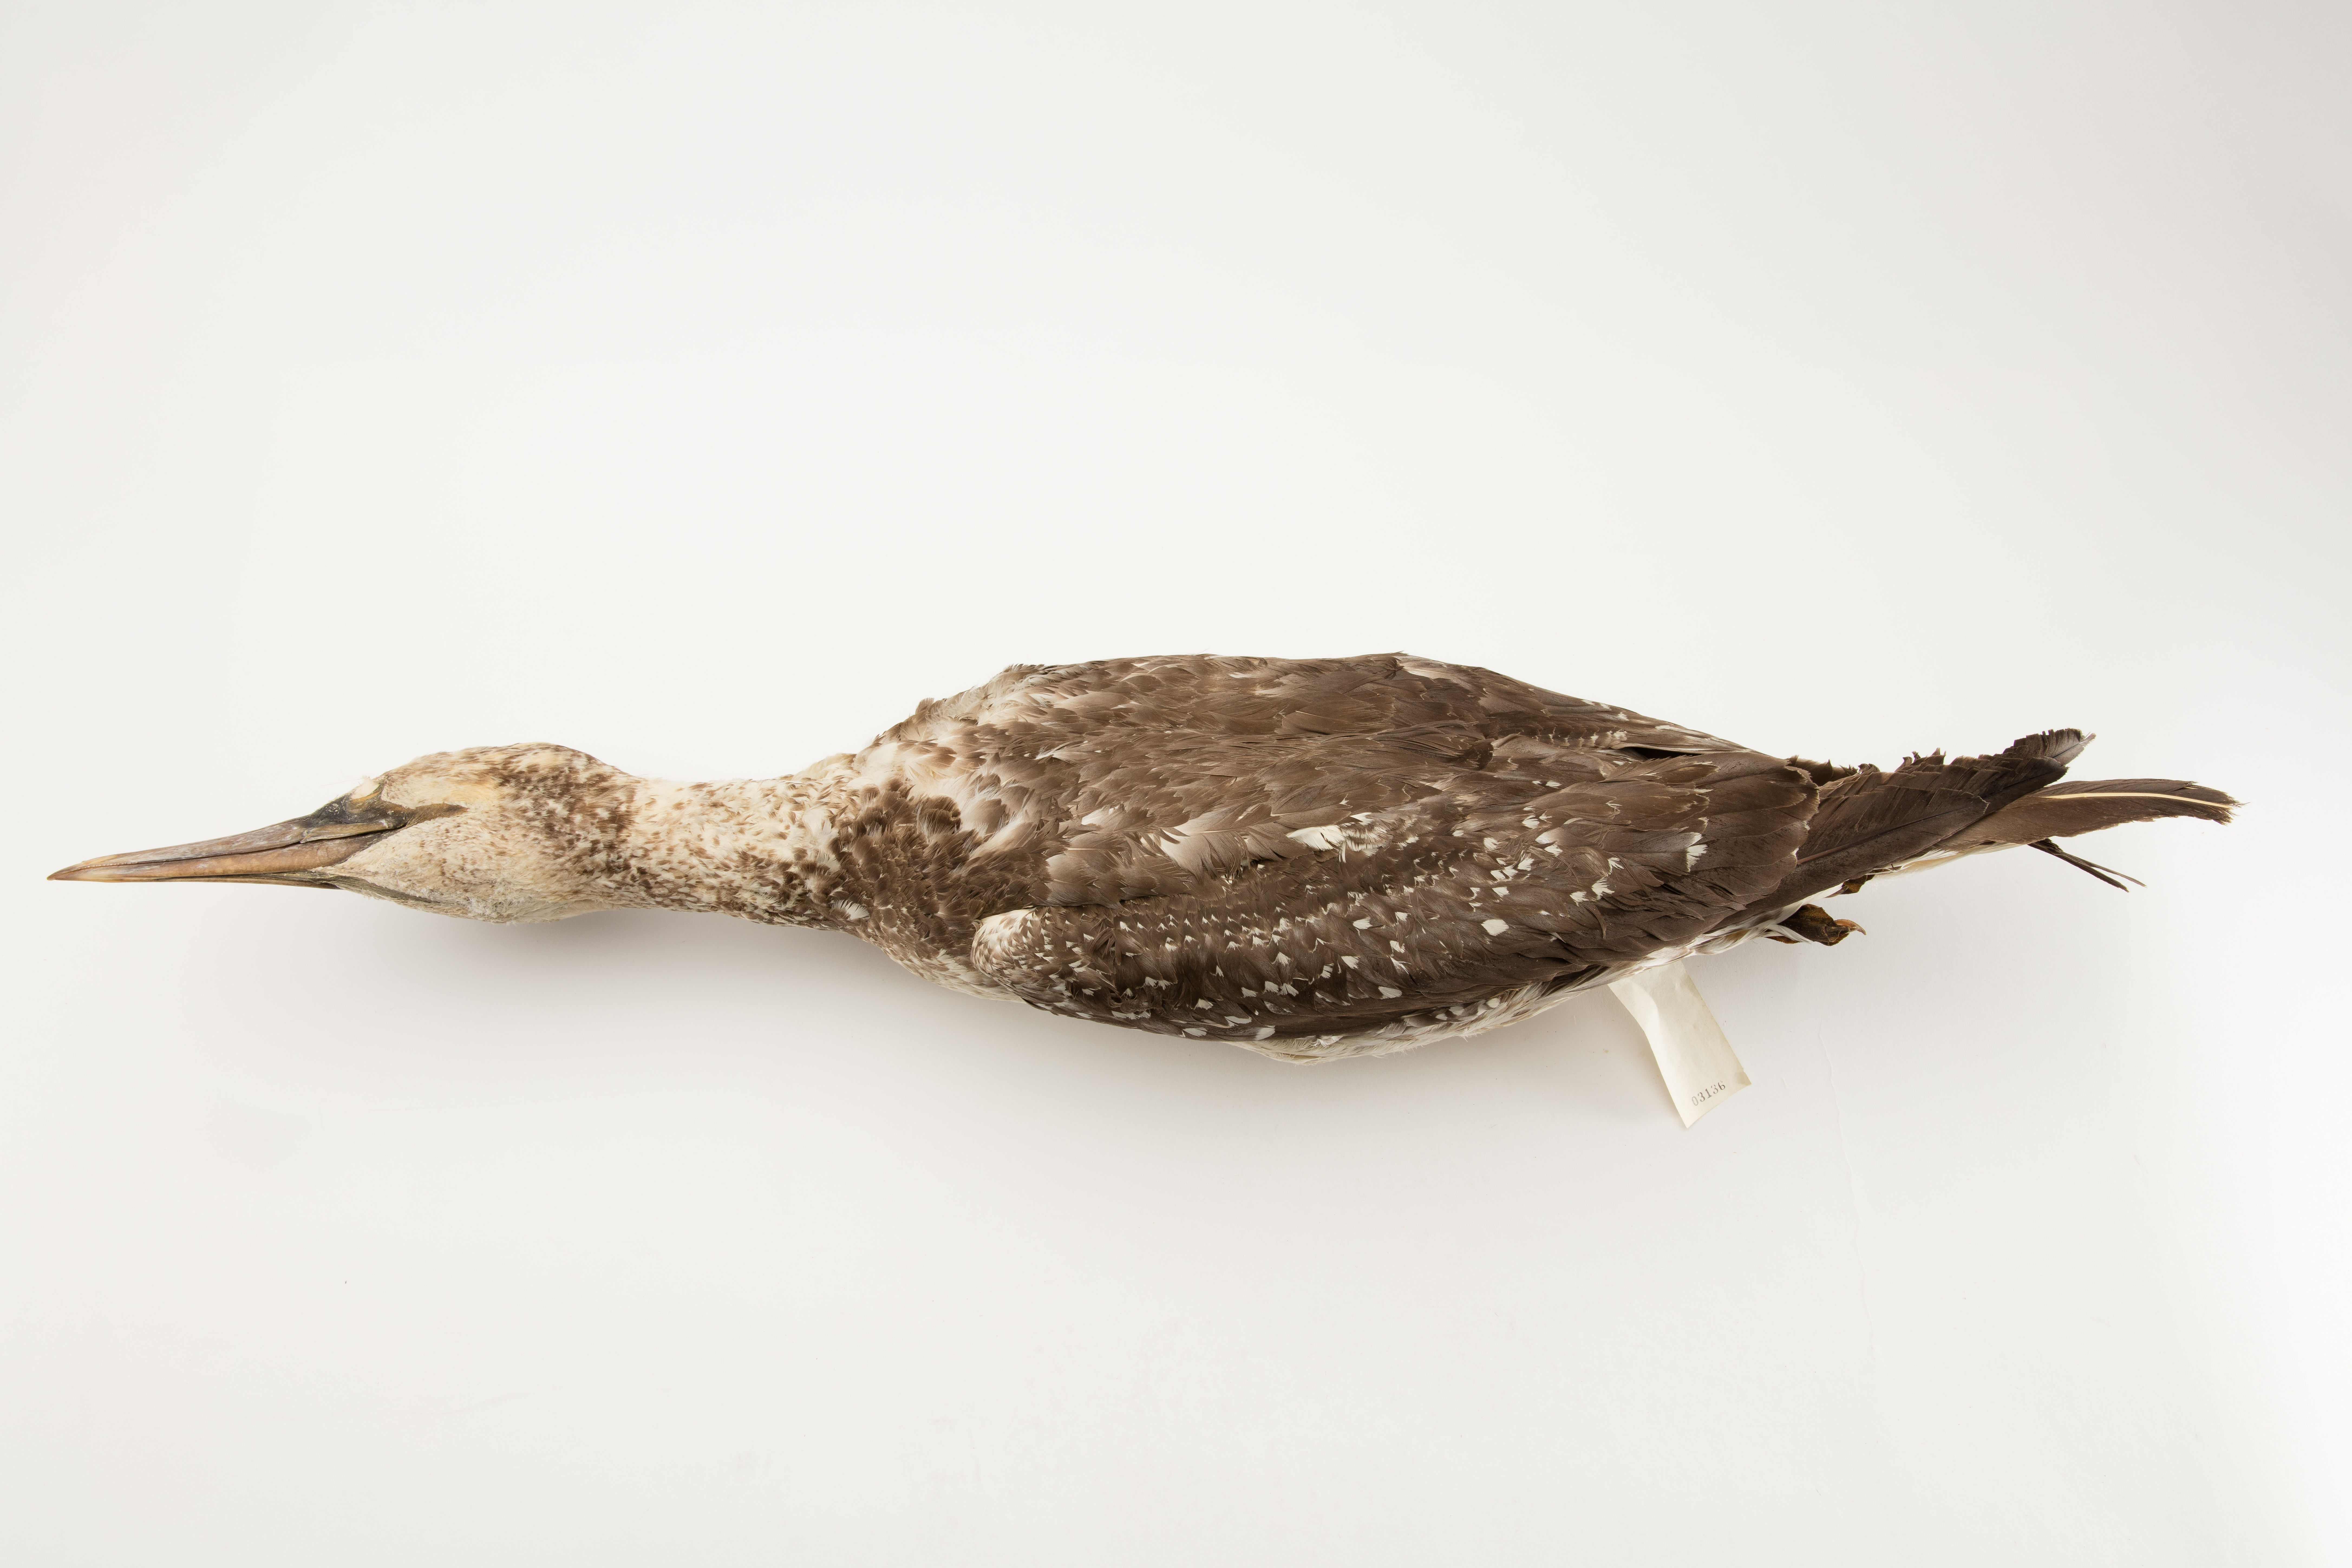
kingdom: Animalia
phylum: Chordata
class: Aves
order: Suliformes
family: Sulidae
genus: Morus
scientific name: Morus serrator
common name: Australasian gannet
